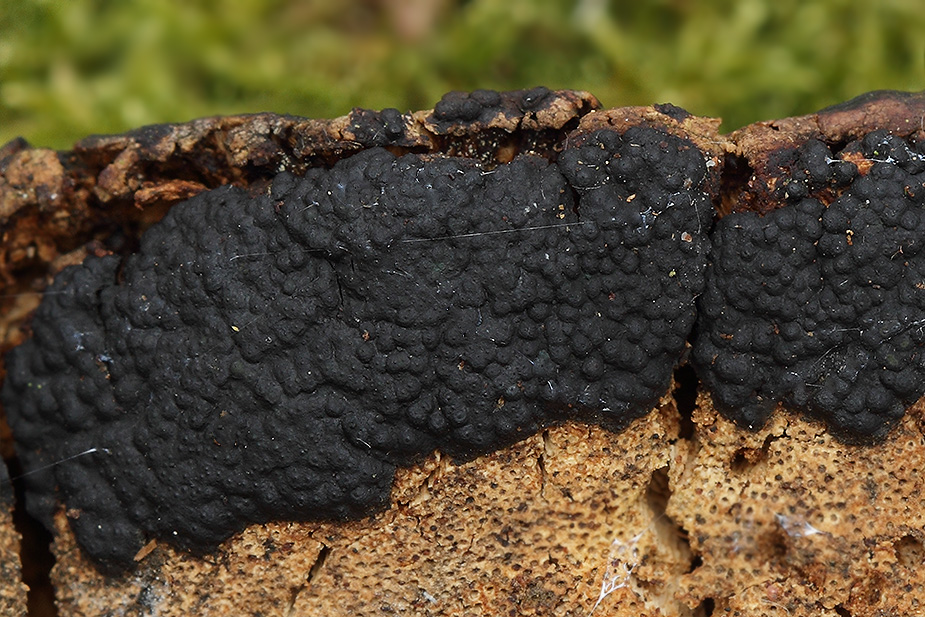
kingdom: Fungi
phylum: Ascomycota
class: Sordariomycetes
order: Xylariales
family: Xylariaceae
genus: Nemania
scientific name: Nemania serpens
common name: hovpore-kuldyne
